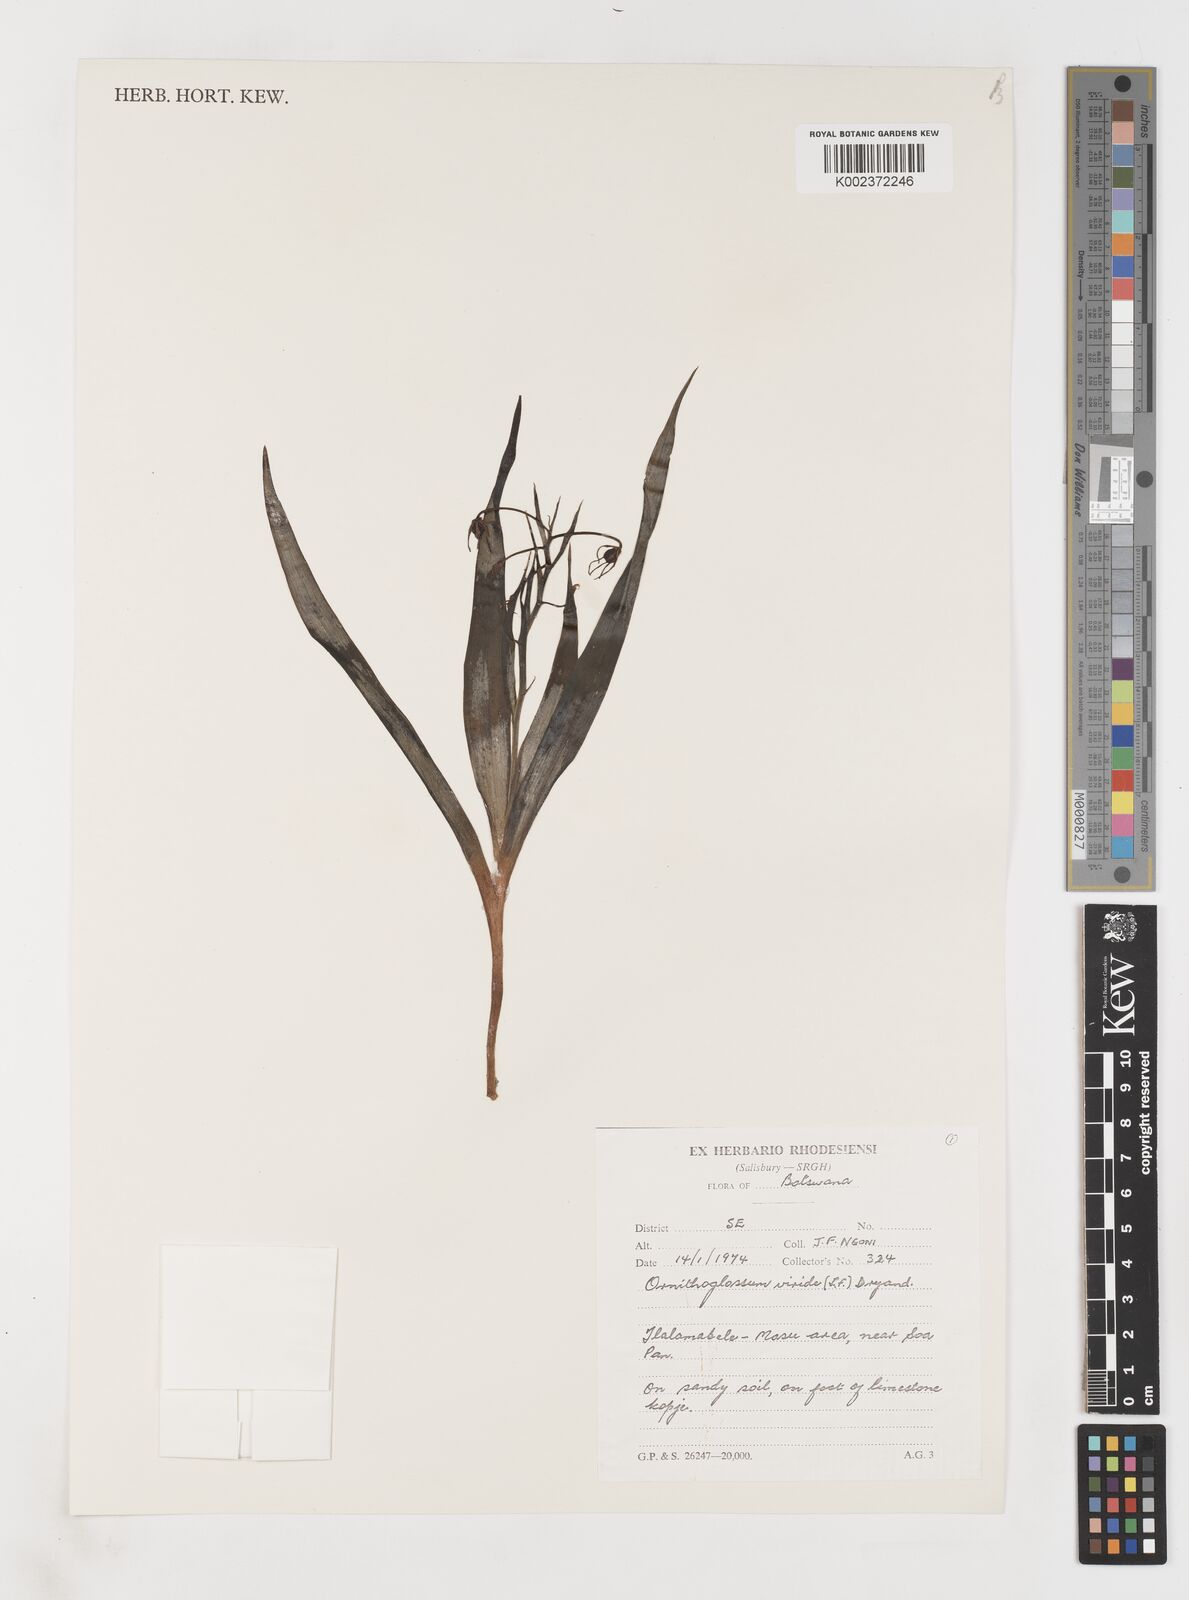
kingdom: Plantae
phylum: Tracheophyta
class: Liliopsida
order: Liliales
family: Colchicaceae
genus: Ornithoglossum
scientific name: Ornithoglossum vulgare
